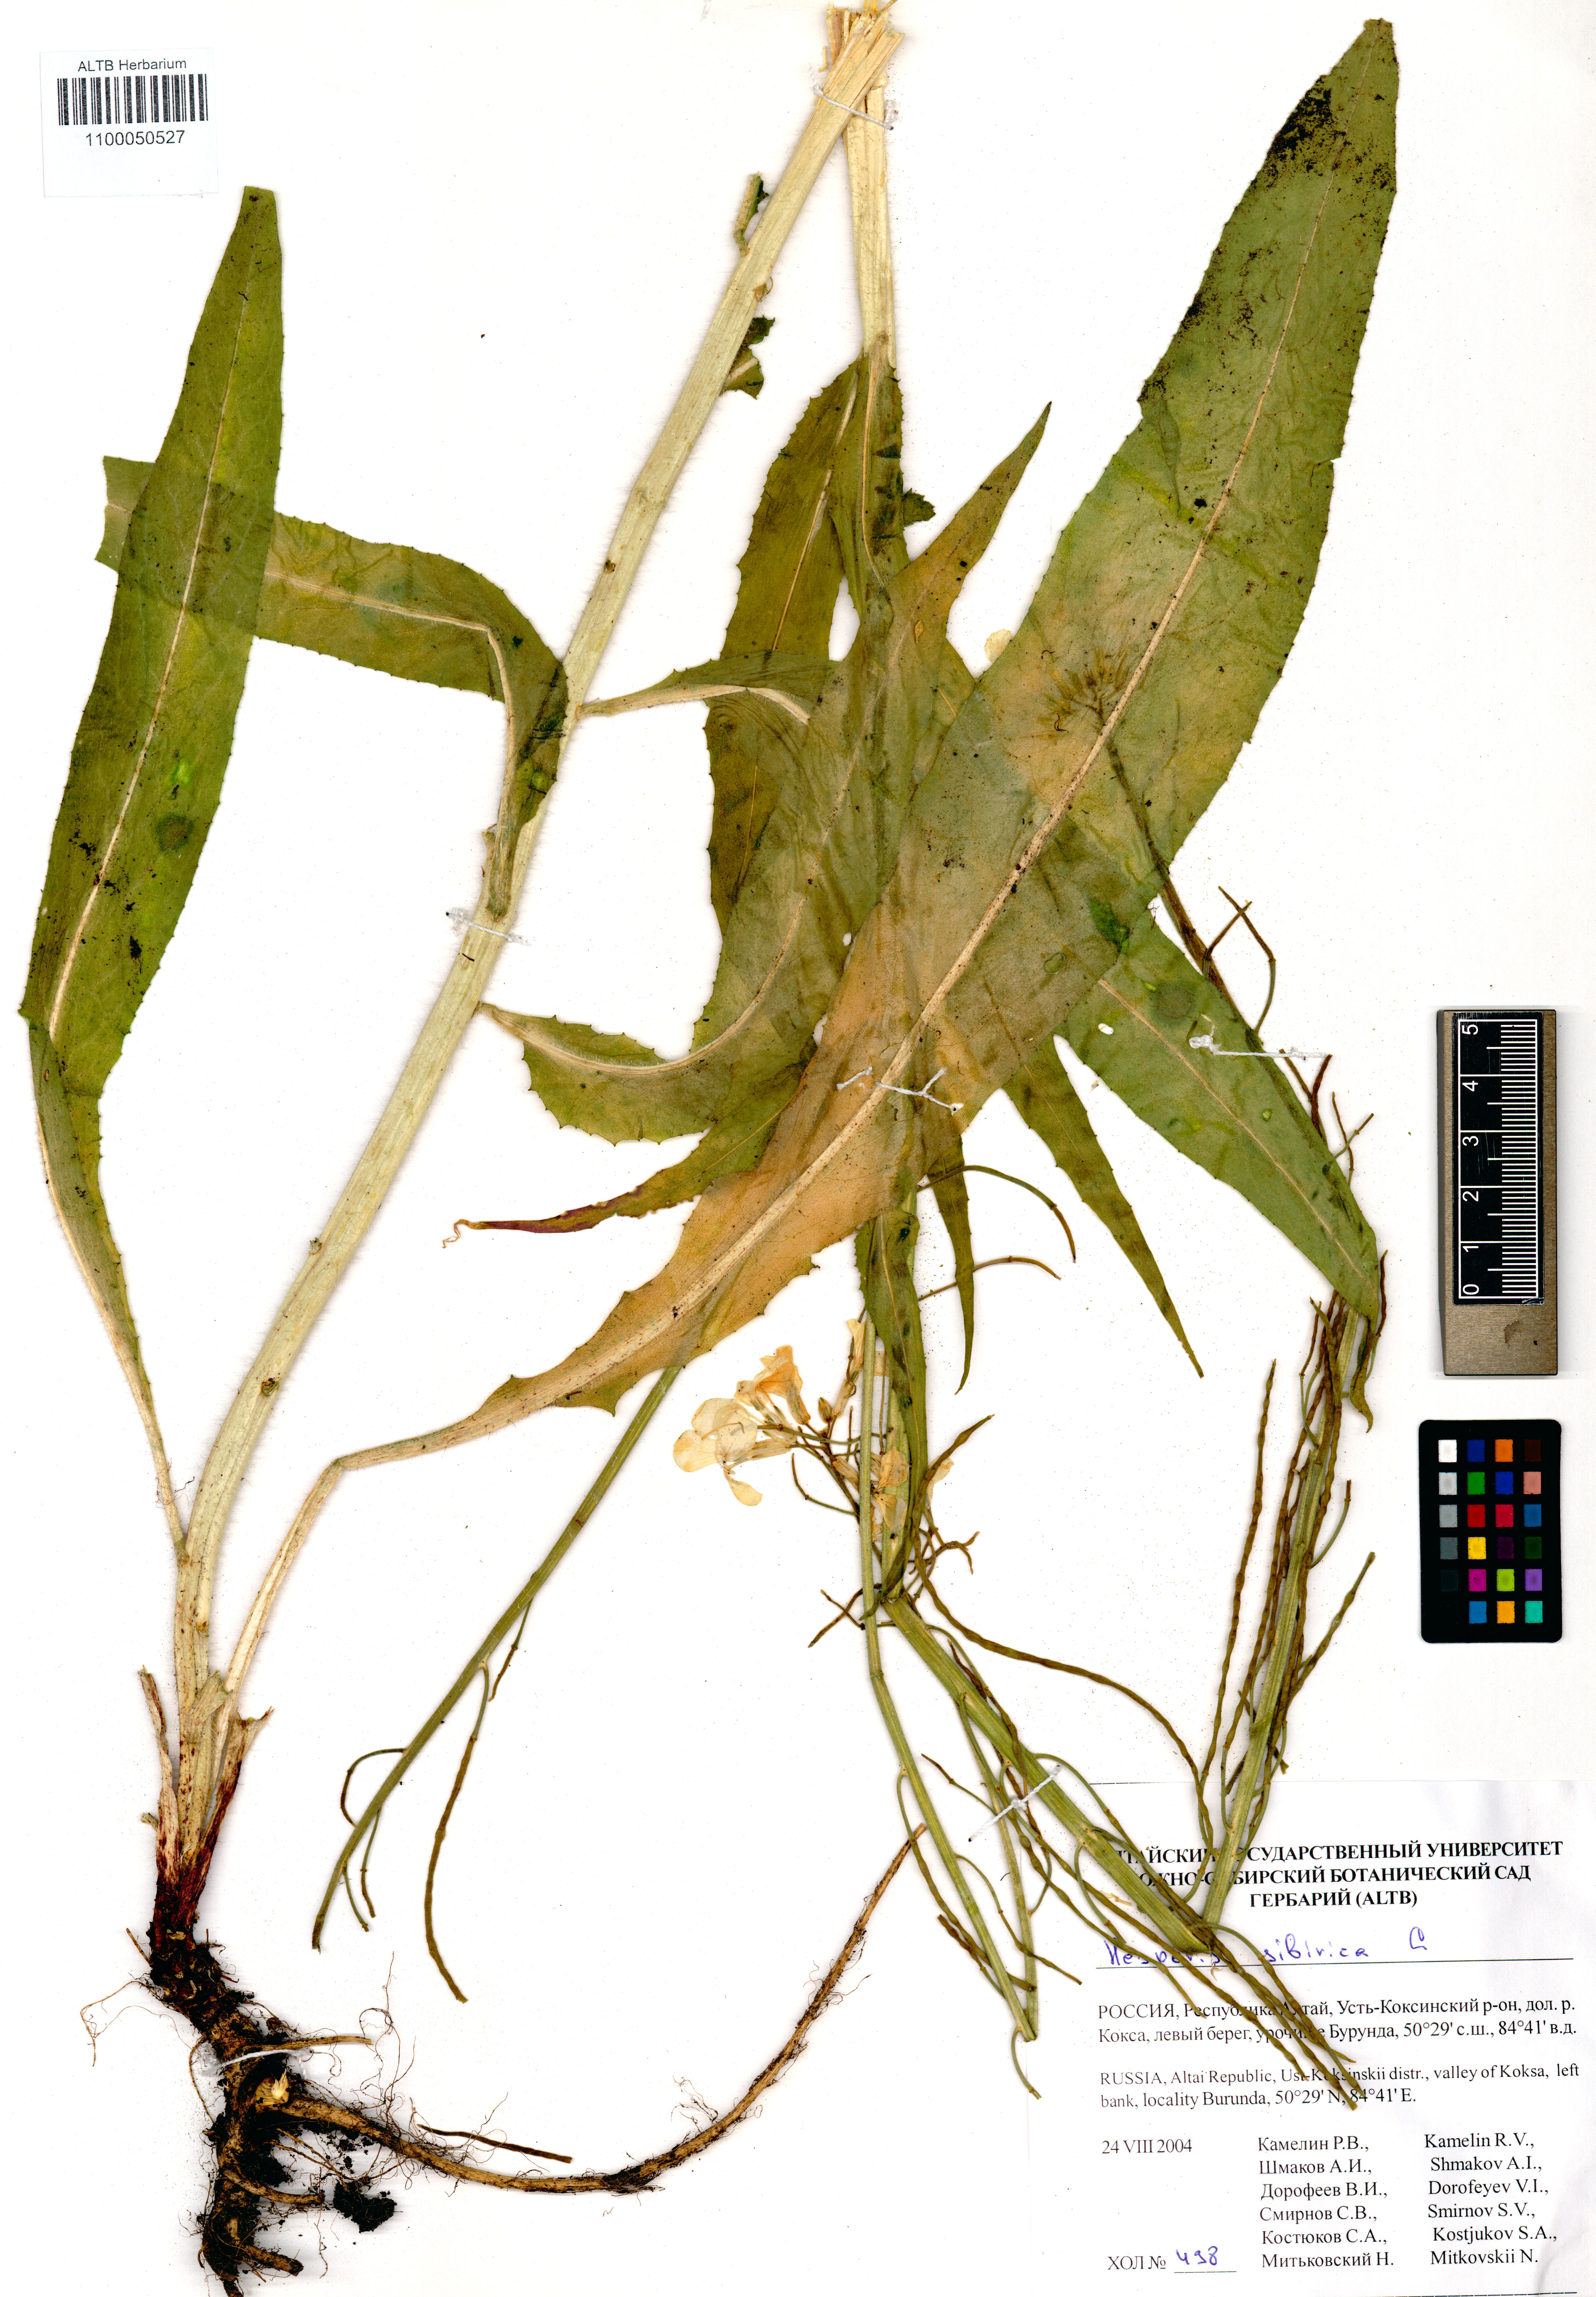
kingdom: Plantae
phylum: Tracheophyta
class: Magnoliopsida
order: Brassicales
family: Brassicaceae
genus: Hesperis
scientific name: Hesperis sibirica
